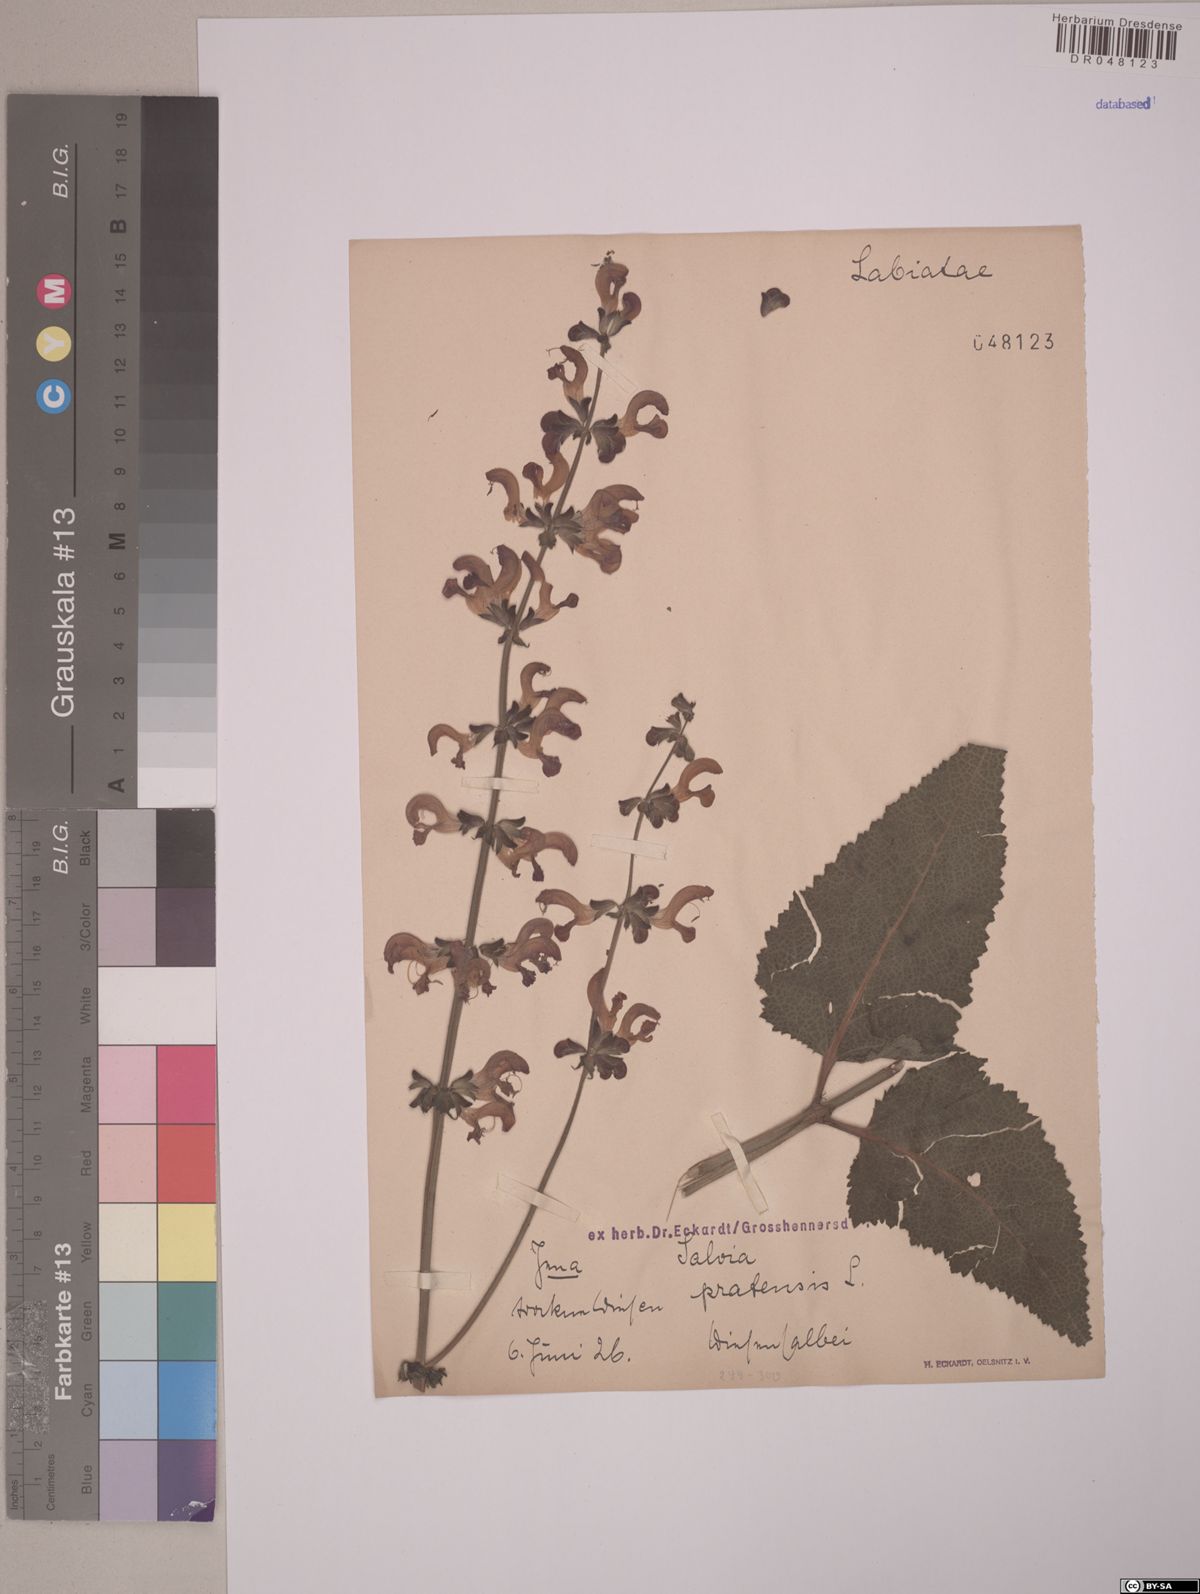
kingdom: Plantae
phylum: Tracheophyta
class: Magnoliopsida
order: Lamiales
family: Lamiaceae
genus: Salvia
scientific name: Salvia pratensis
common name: Meadow sage
